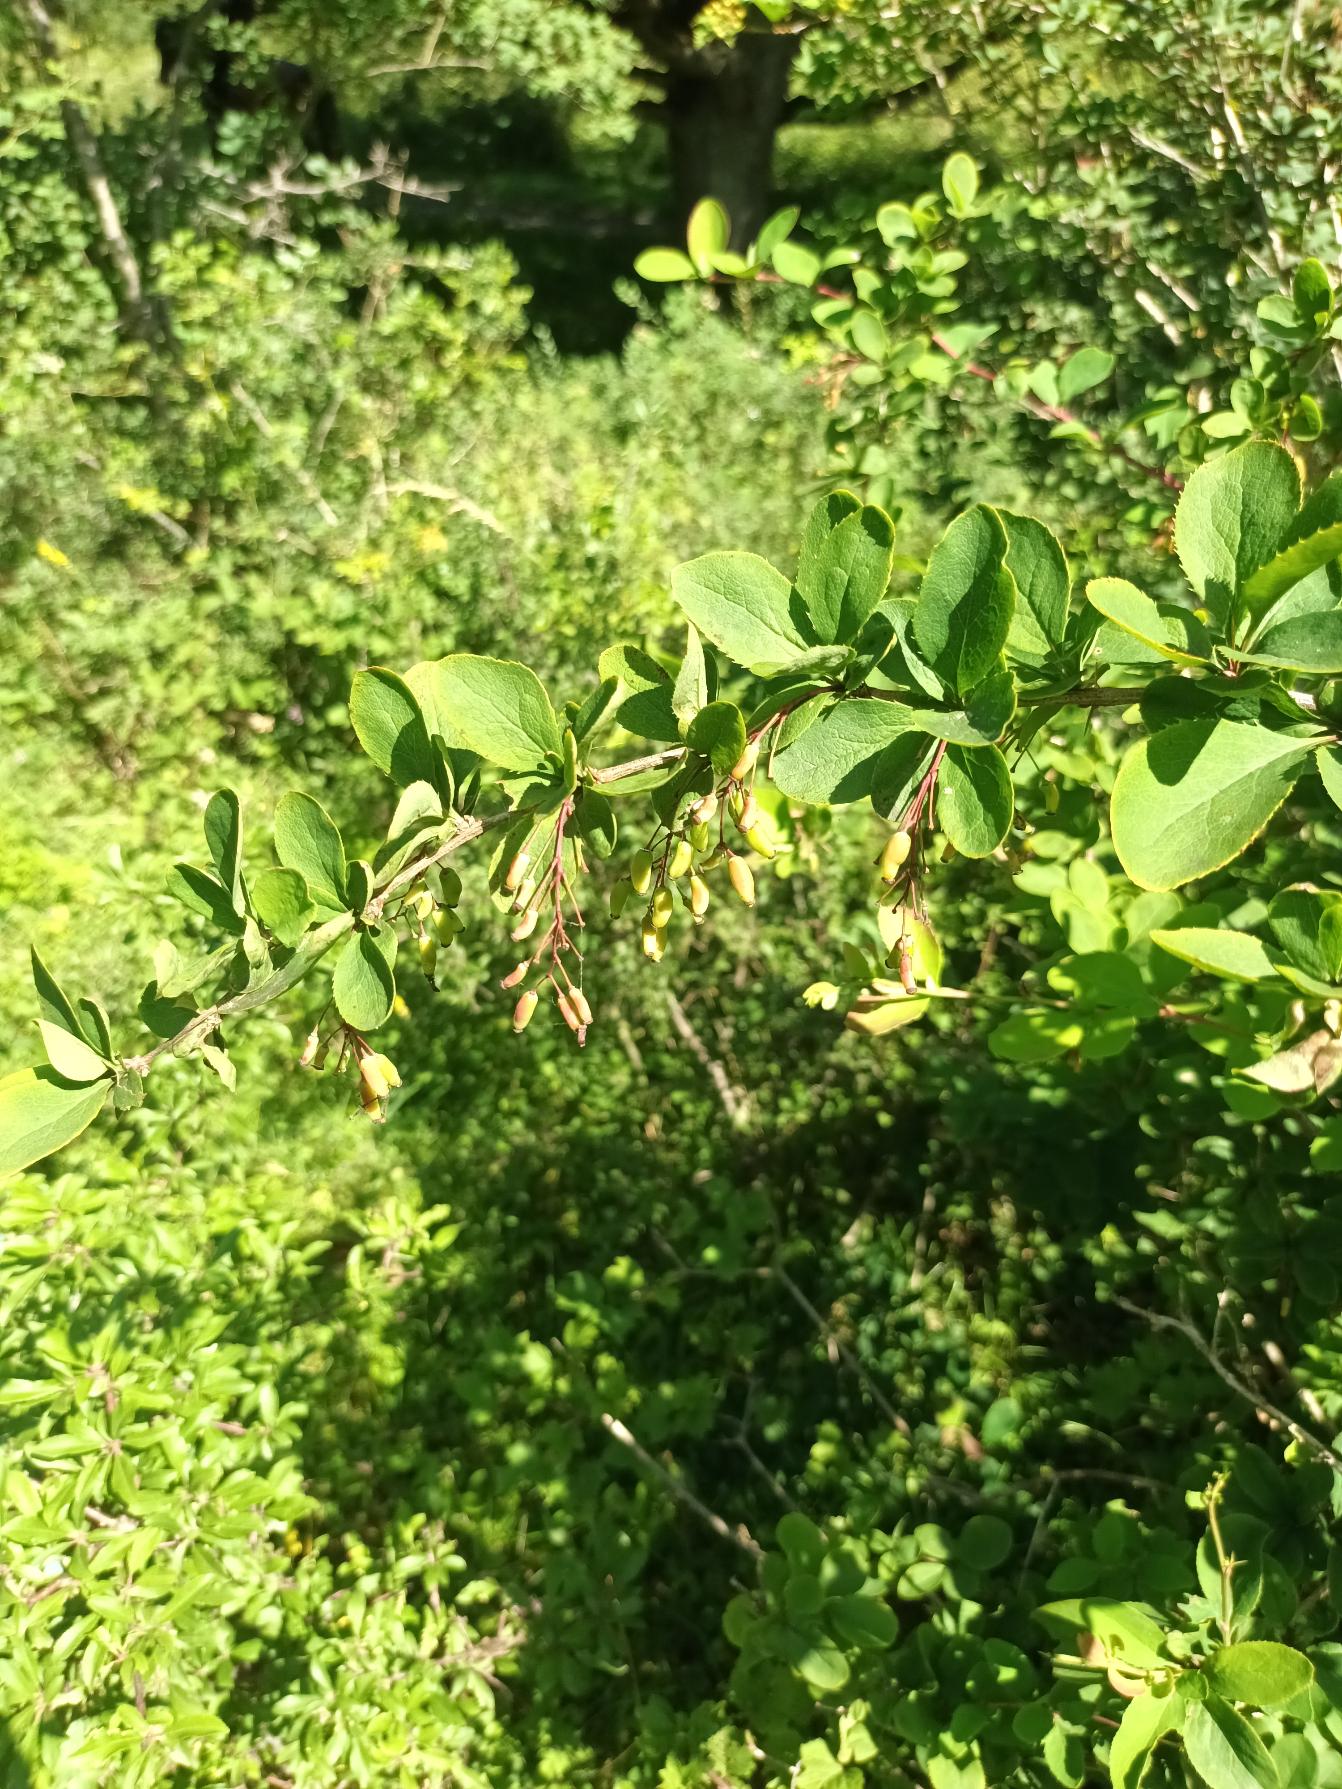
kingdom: Plantae
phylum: Tracheophyta
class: Magnoliopsida
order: Ranunculales
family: Berberidaceae
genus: Berberis
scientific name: Berberis vulgaris
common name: Almindelig berberis
